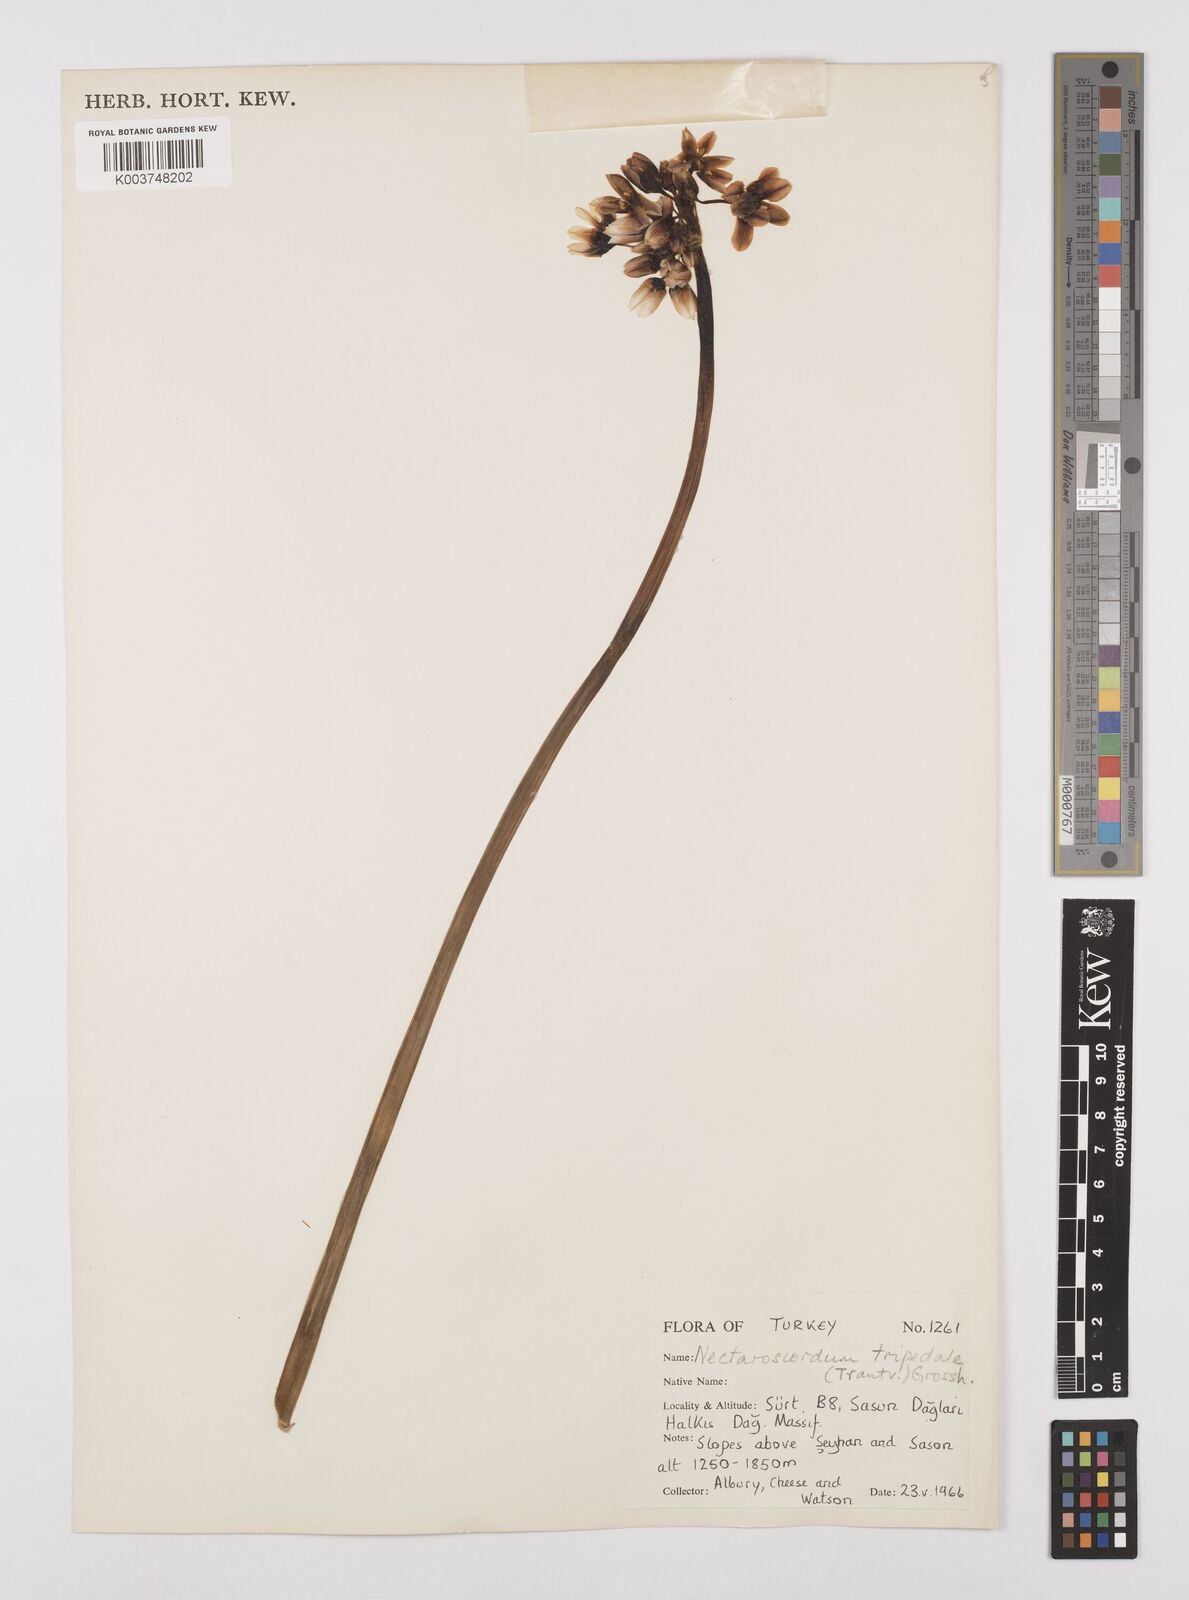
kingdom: Plantae
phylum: Tracheophyta
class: Liliopsida
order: Asparagales
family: Amaryllidaceae
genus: Allium
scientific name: Allium tripedale
